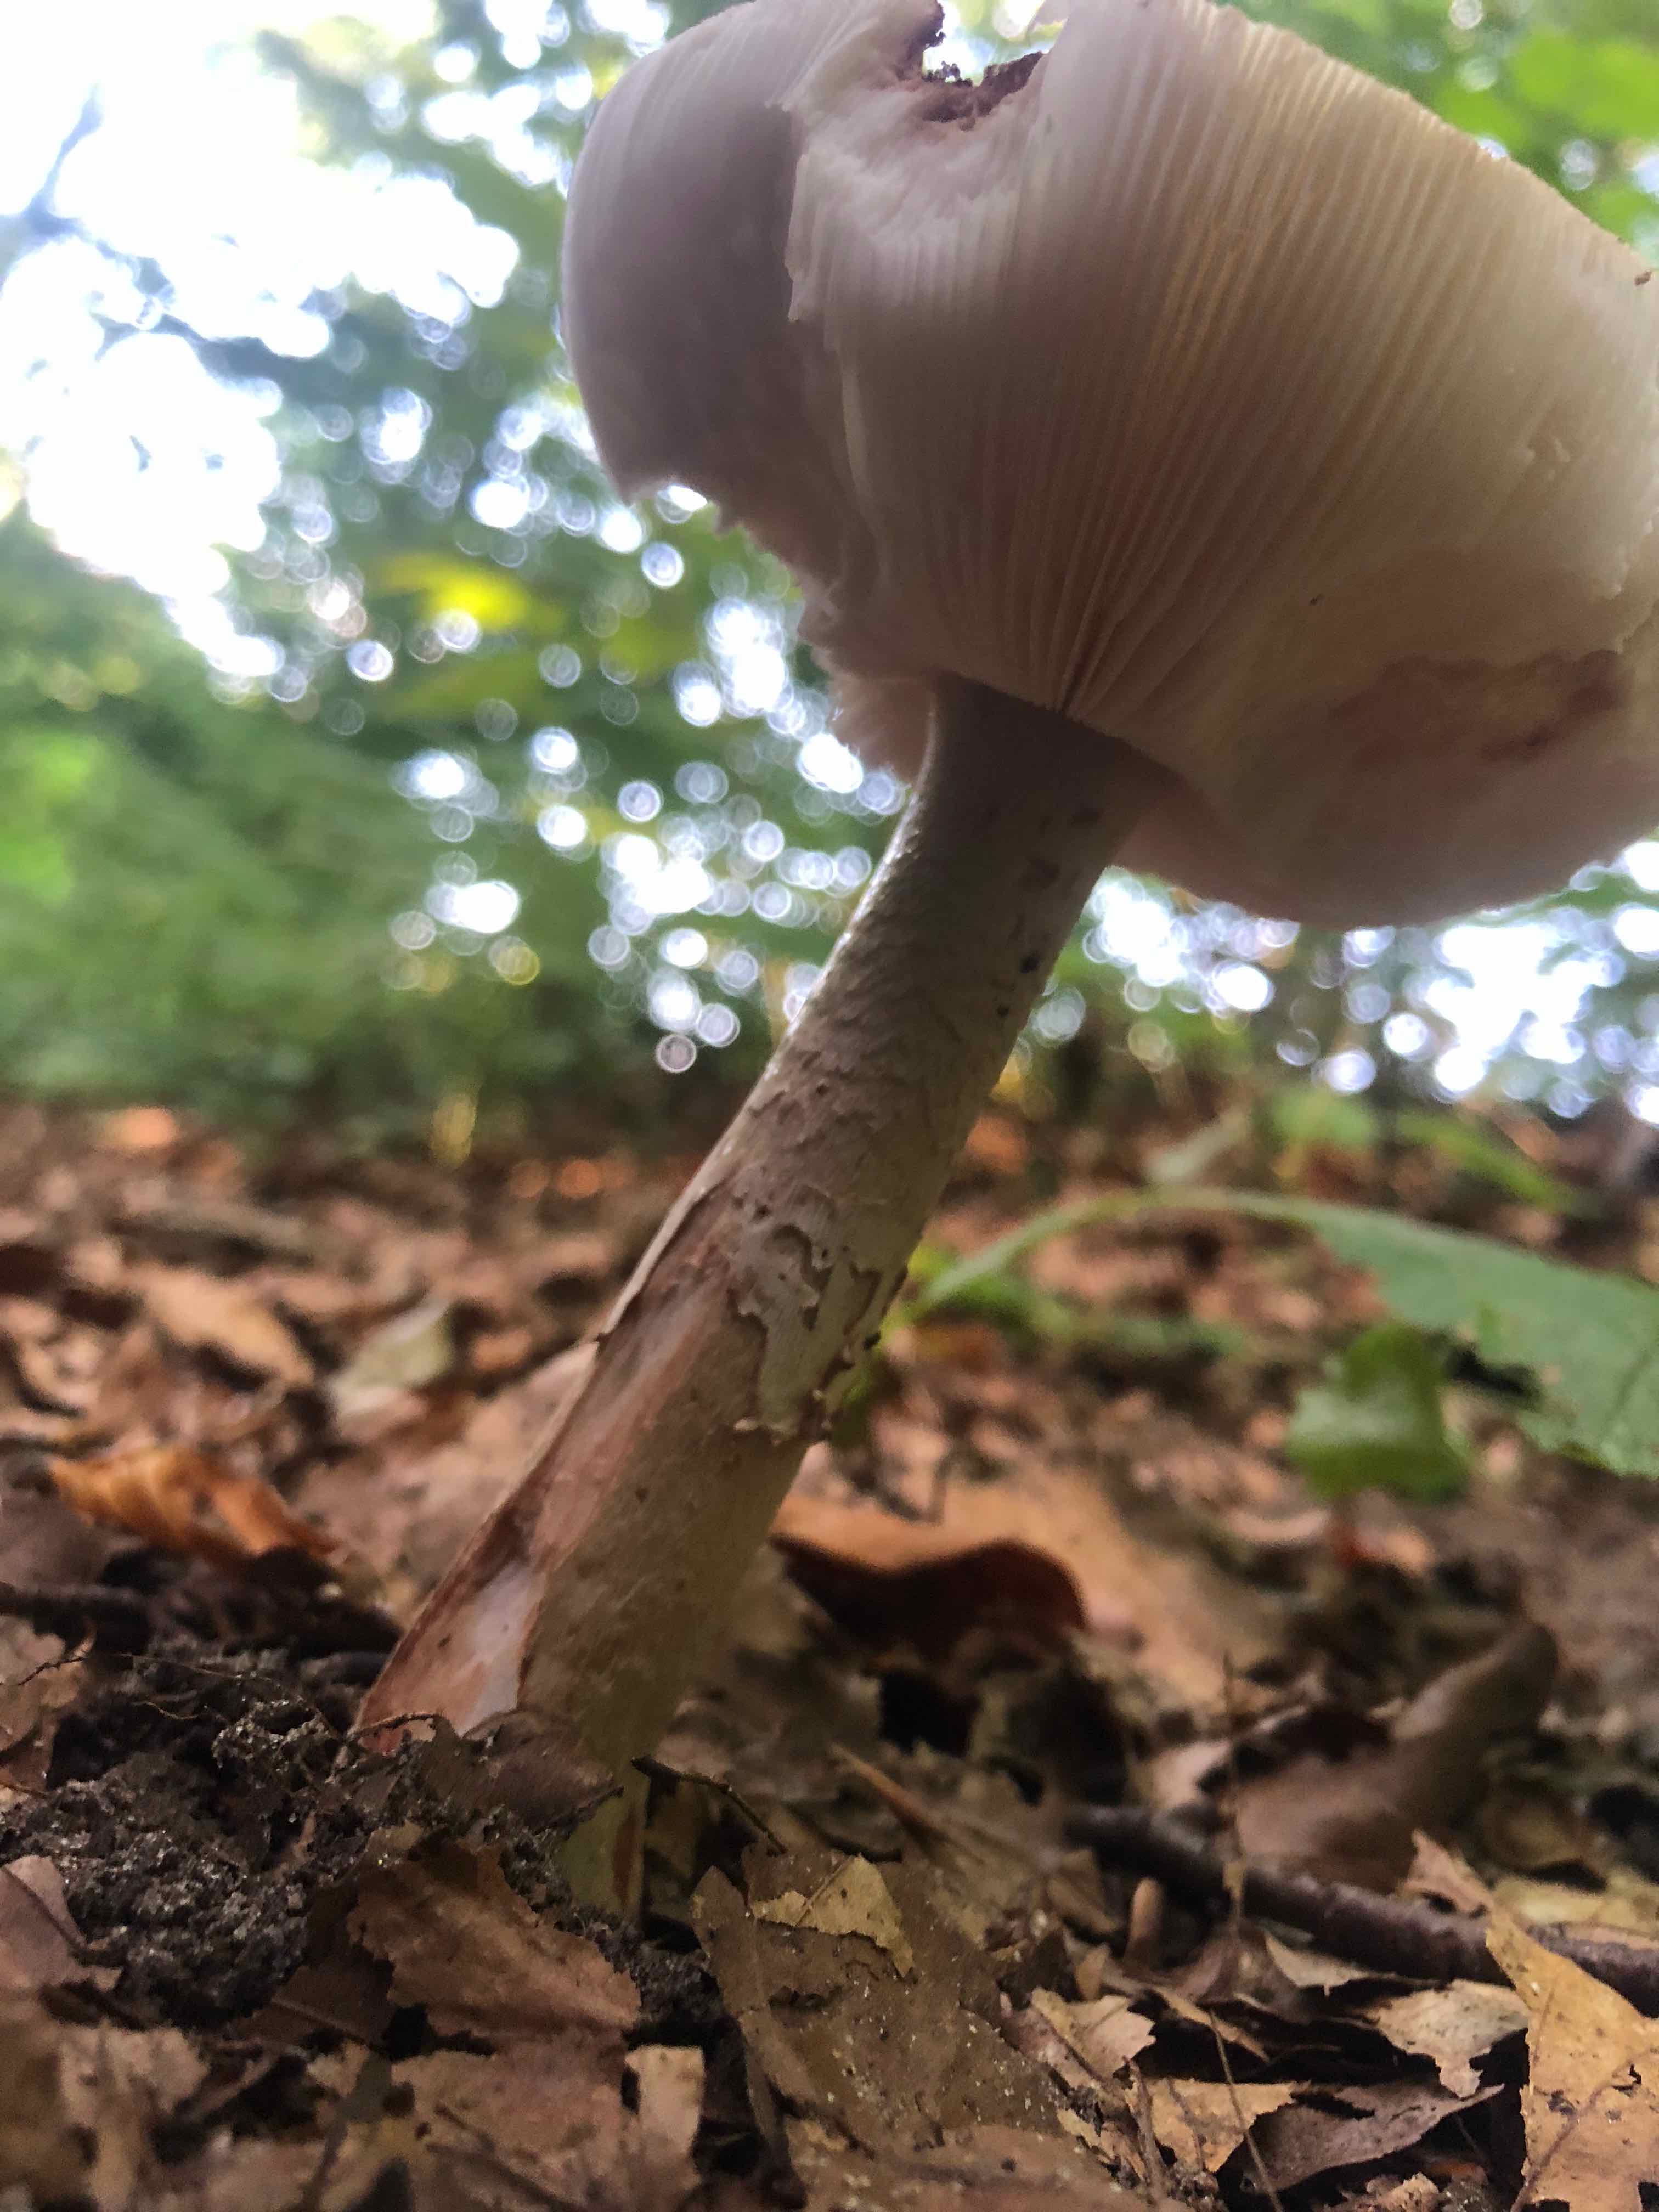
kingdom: Fungi
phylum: Basidiomycota
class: Agaricomycetes
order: Agaricales
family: Amanitaceae
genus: Amanita
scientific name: Amanita rubescens
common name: rødmende fluesvamp
